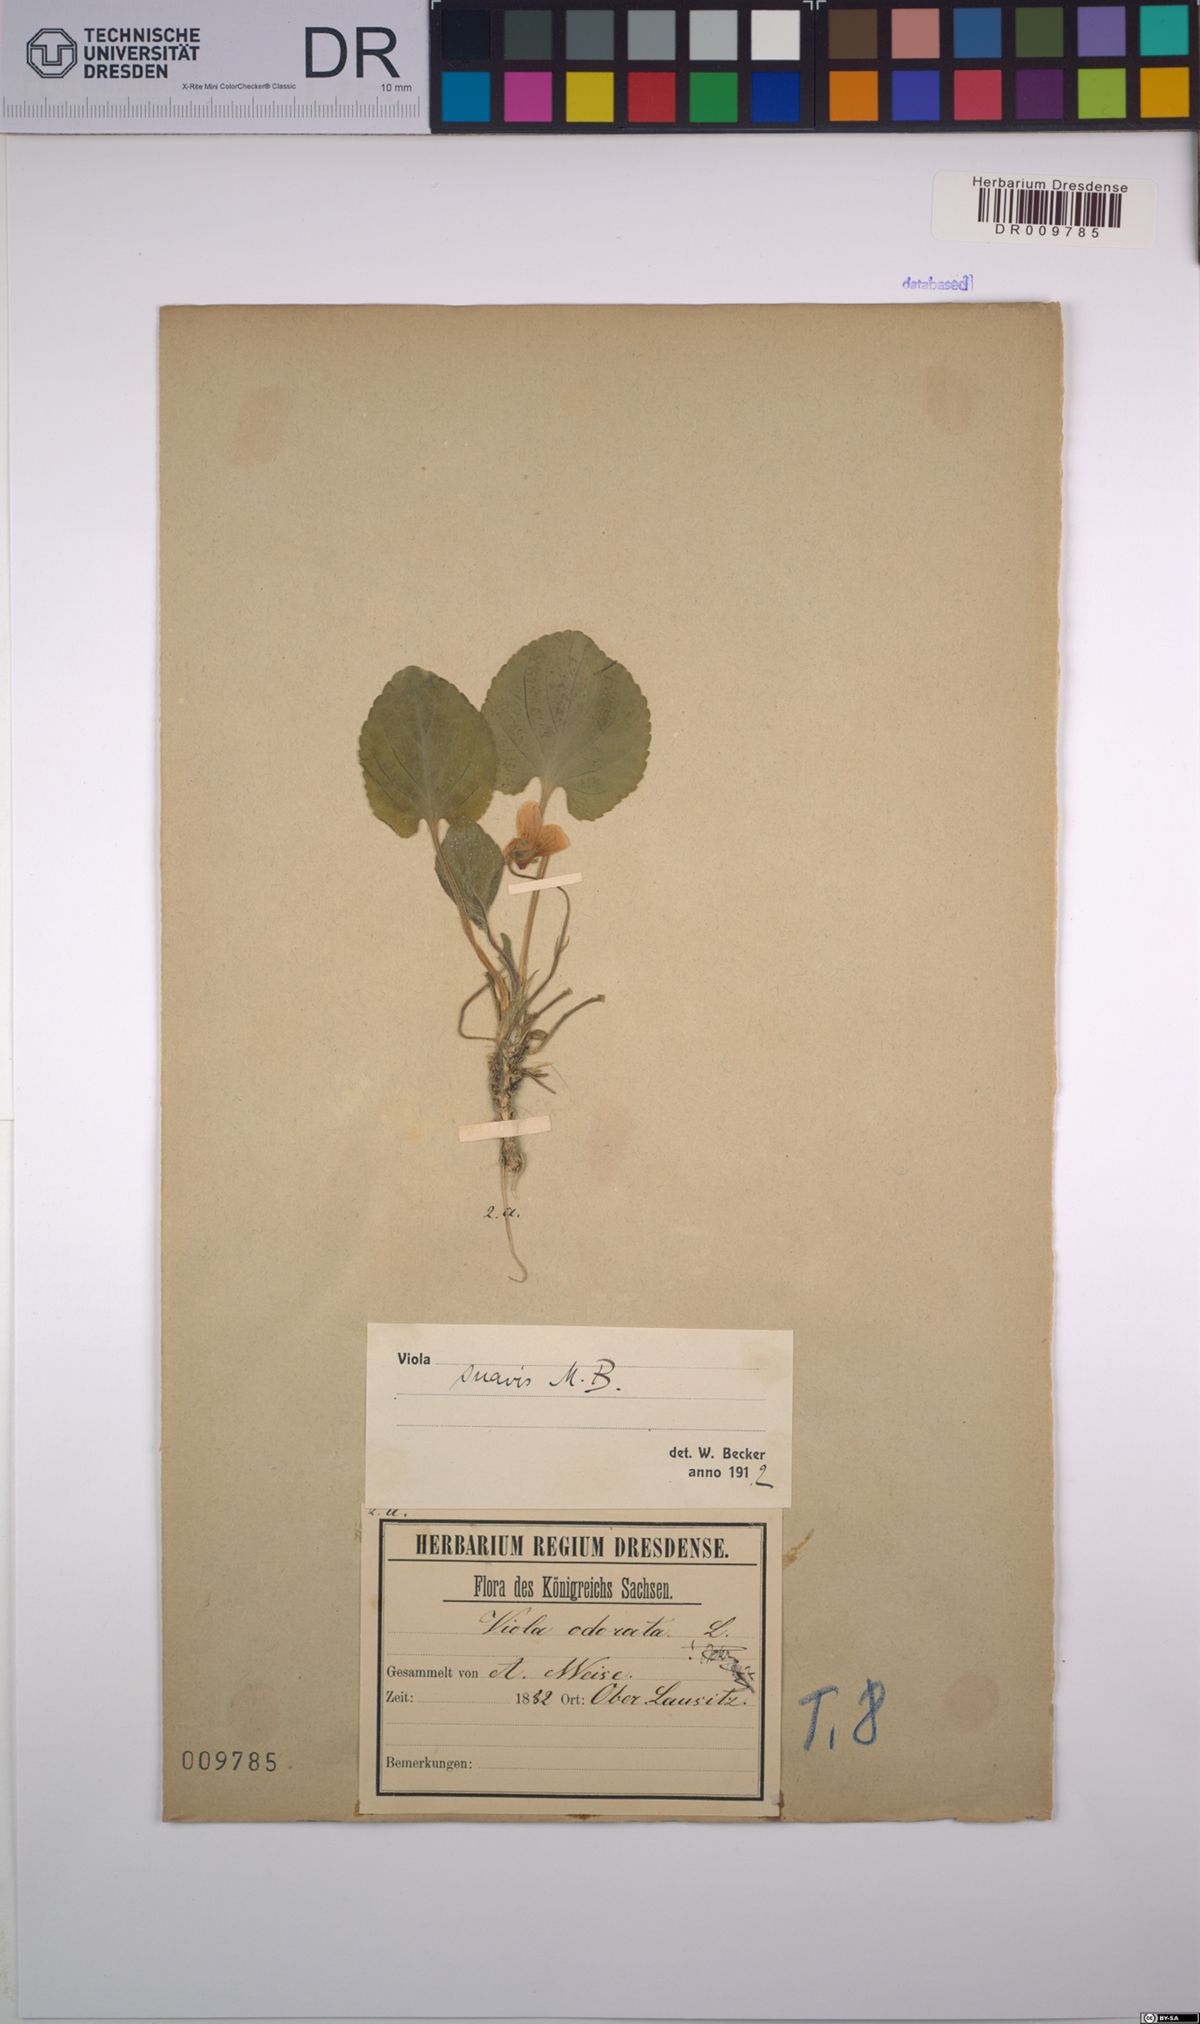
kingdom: Plantae
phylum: Tracheophyta
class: Magnoliopsida
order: Malpighiales
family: Violaceae
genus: Viola
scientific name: Viola suavis
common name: Russian violet
